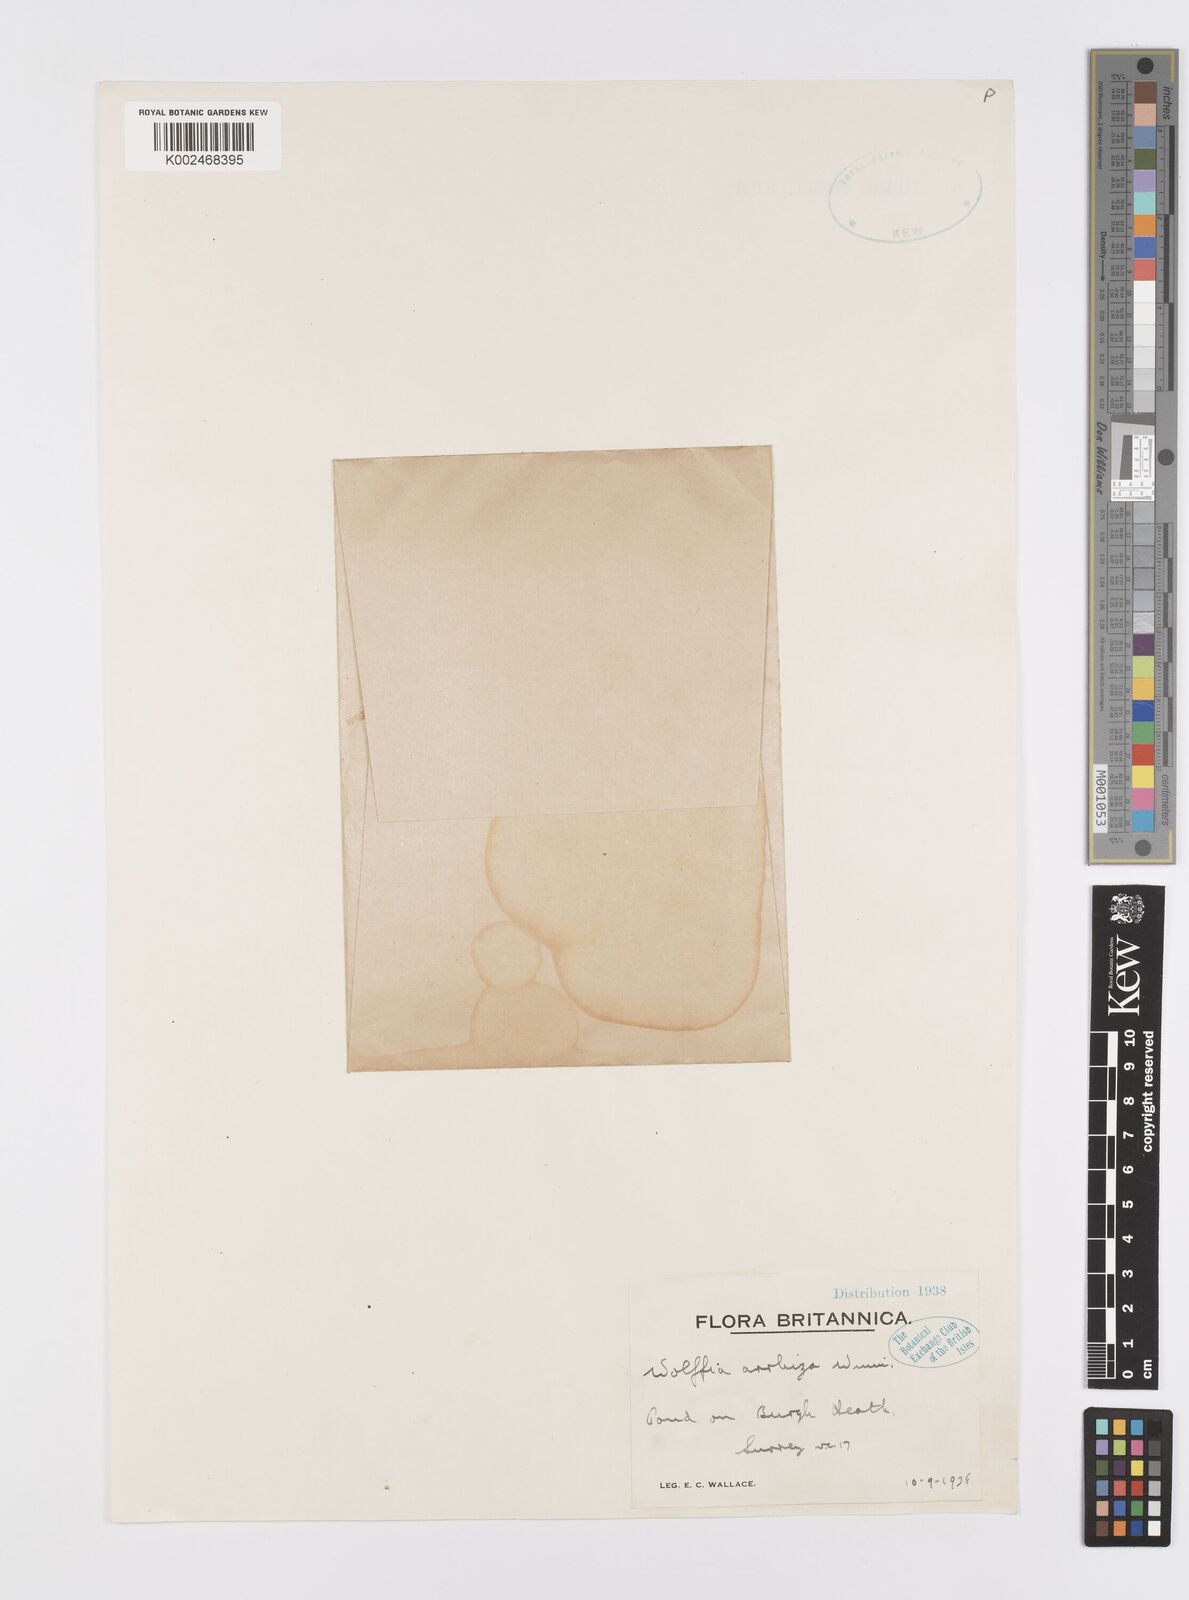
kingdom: Plantae
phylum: Tracheophyta
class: Liliopsida
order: Alismatales
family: Araceae
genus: Wolffia
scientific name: Wolffia arrhiza
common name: Rootless duckweed
